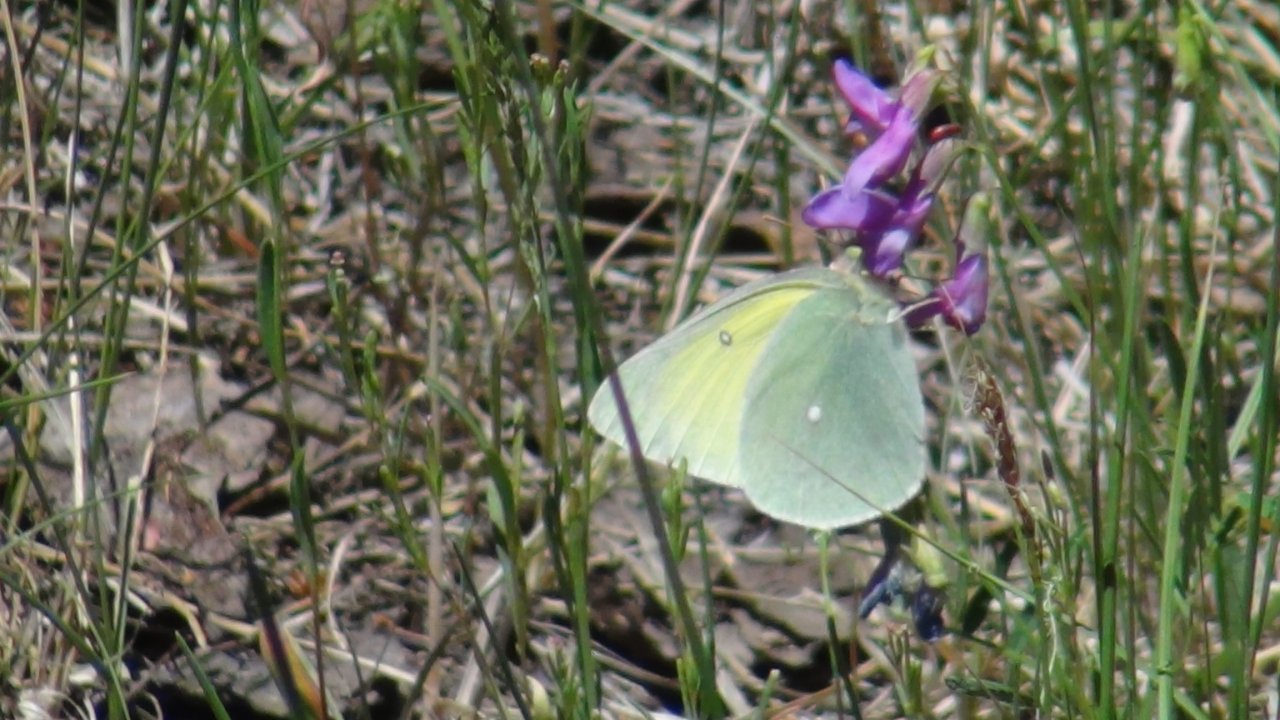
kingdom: Animalia
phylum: Arthropoda
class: Insecta
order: Lepidoptera
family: Pieridae
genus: Colias
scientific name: Colias alexandra
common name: Queen Alexandra's Sulphur
